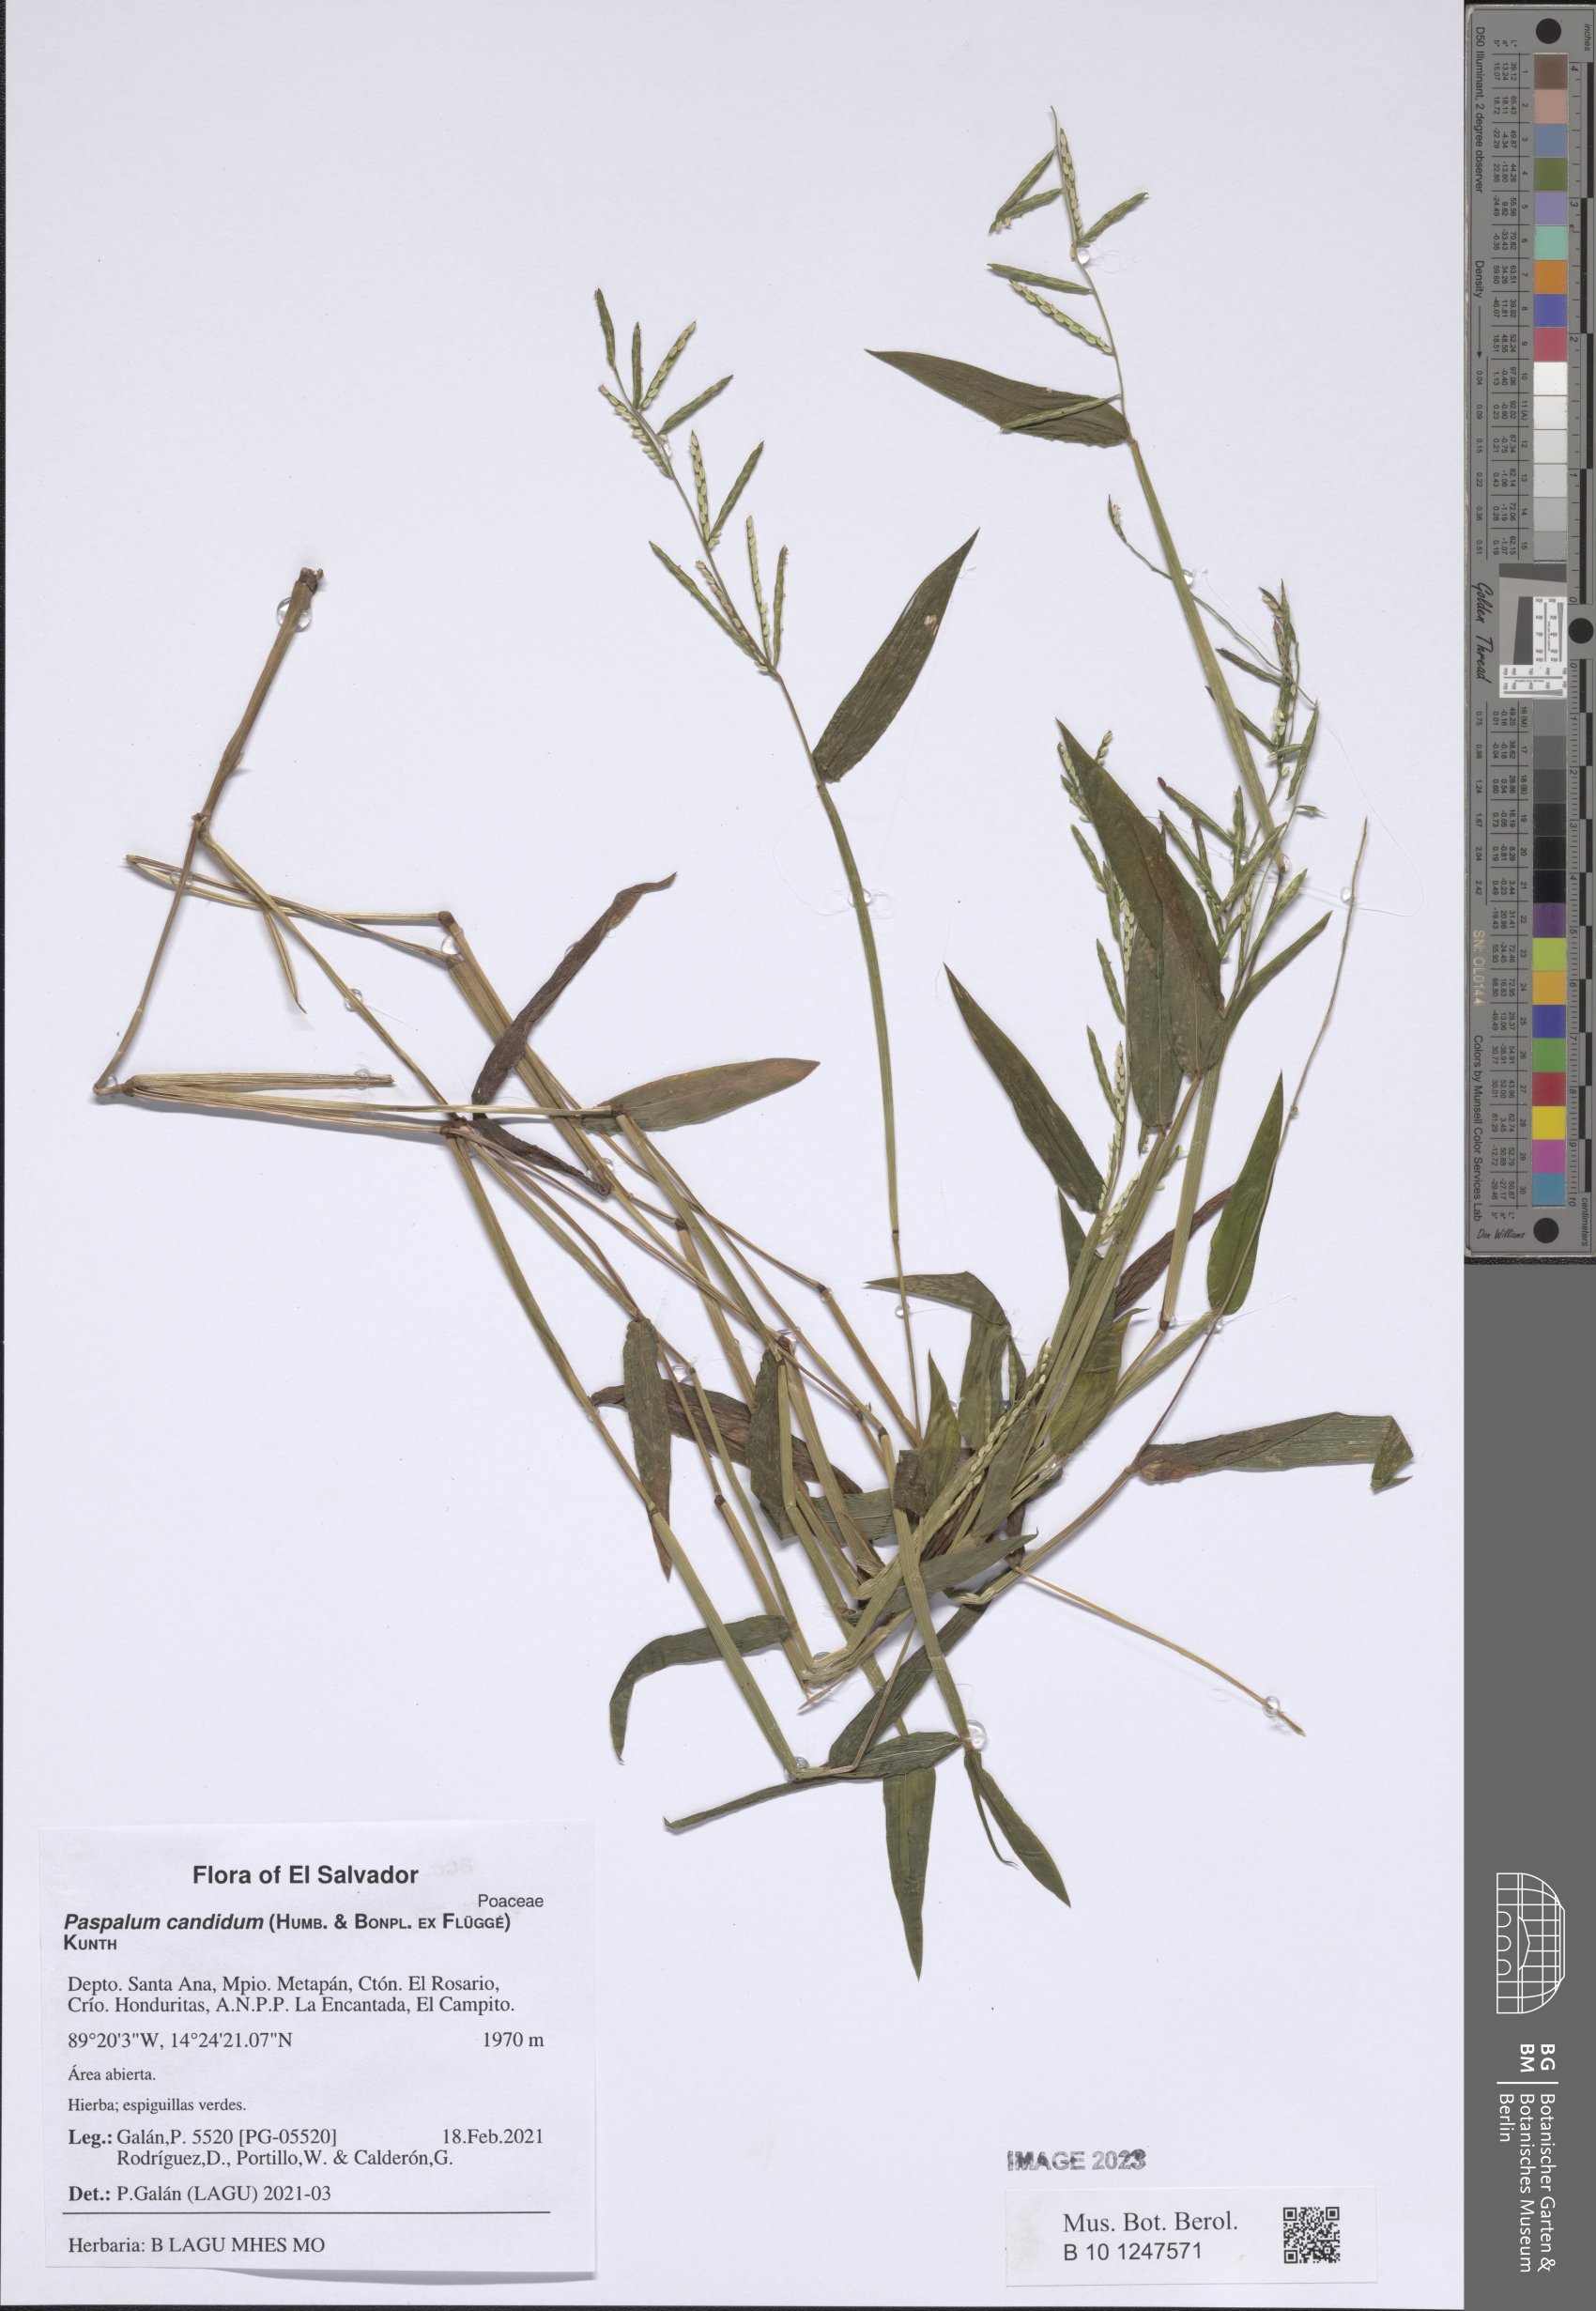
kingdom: Plantae
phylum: Tracheophyta
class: Liliopsida
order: Poales
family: Poaceae
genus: Paspalum
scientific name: Paspalum candidum
